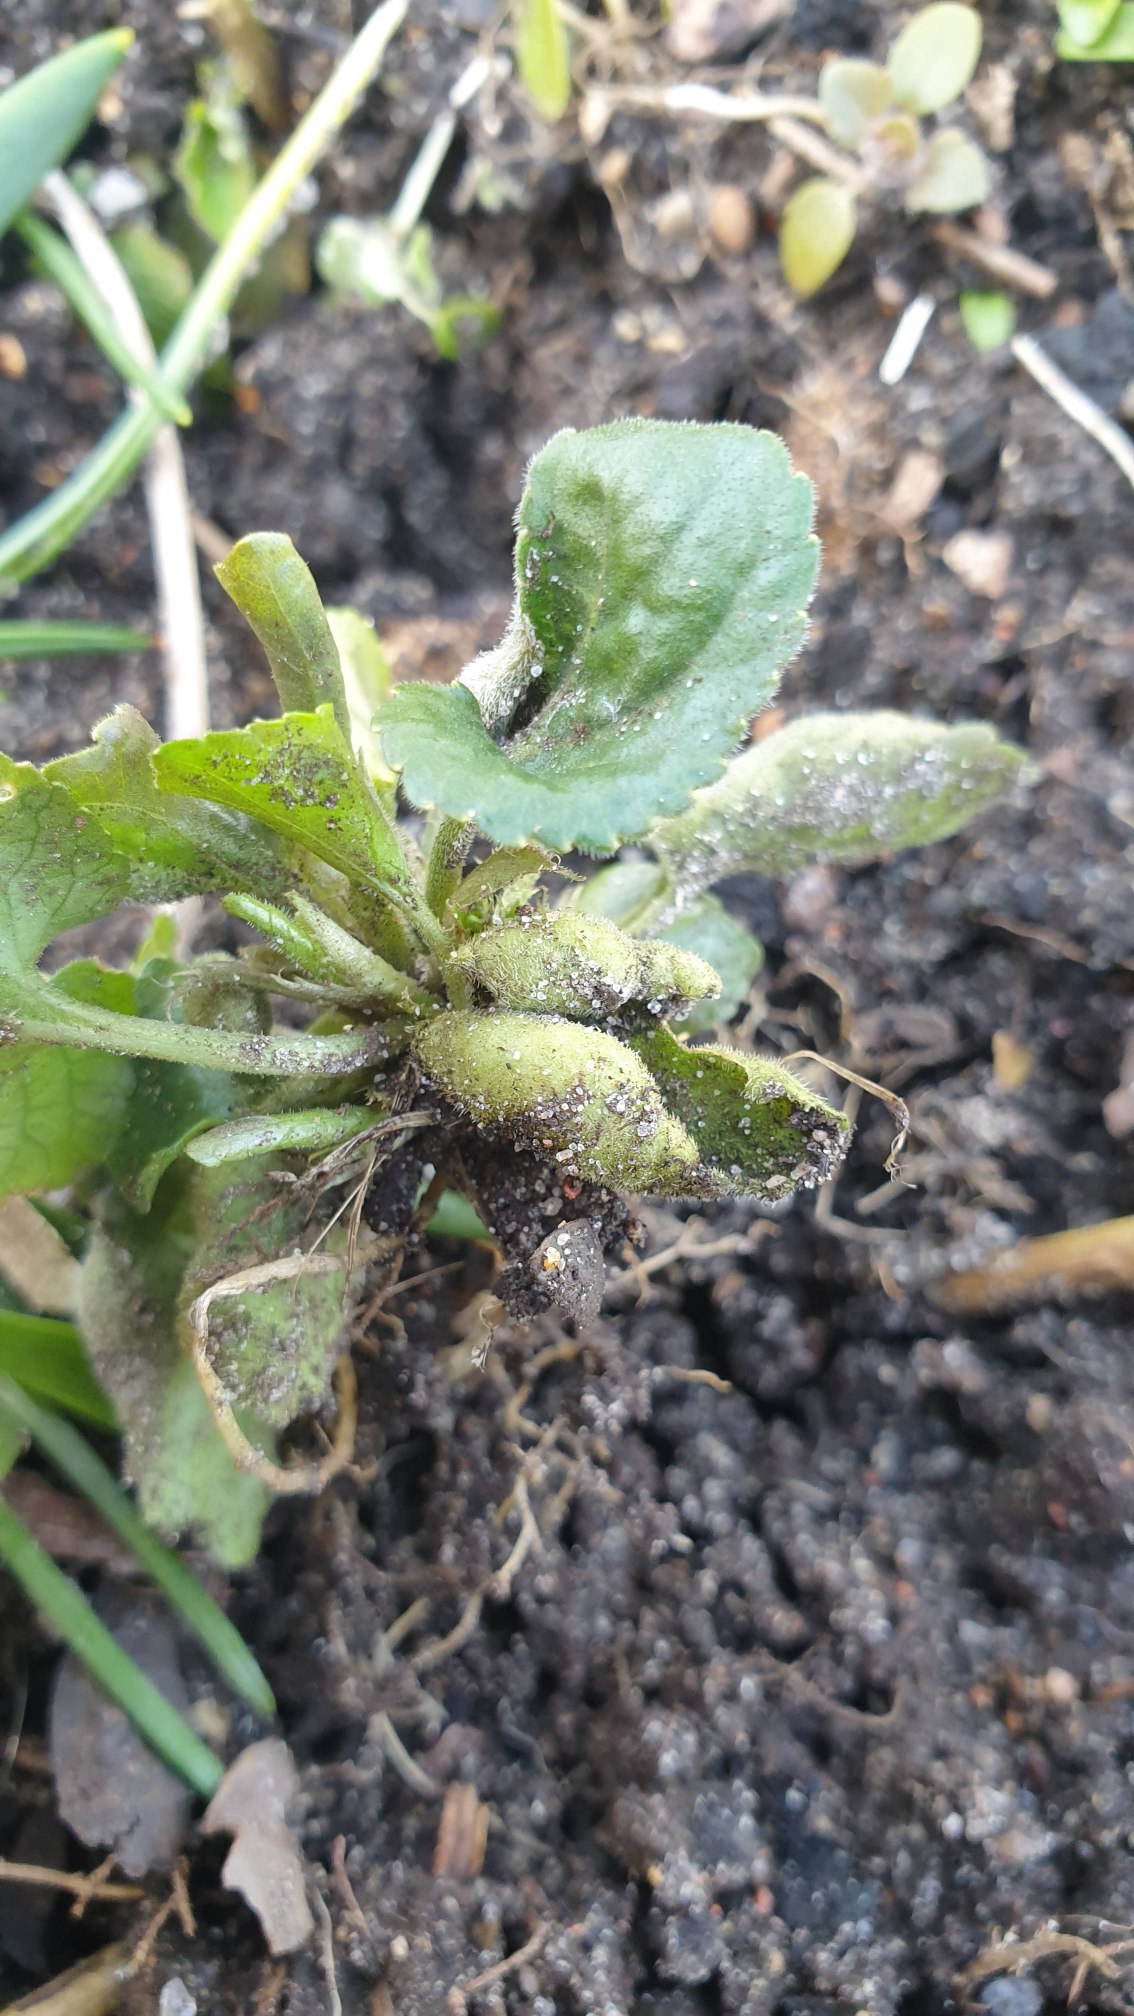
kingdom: Animalia
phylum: Arthropoda
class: Insecta
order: Diptera
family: Cecidomyiidae
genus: Dasineura
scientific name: Dasineura odoratae
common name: Martsviolgalmyg
